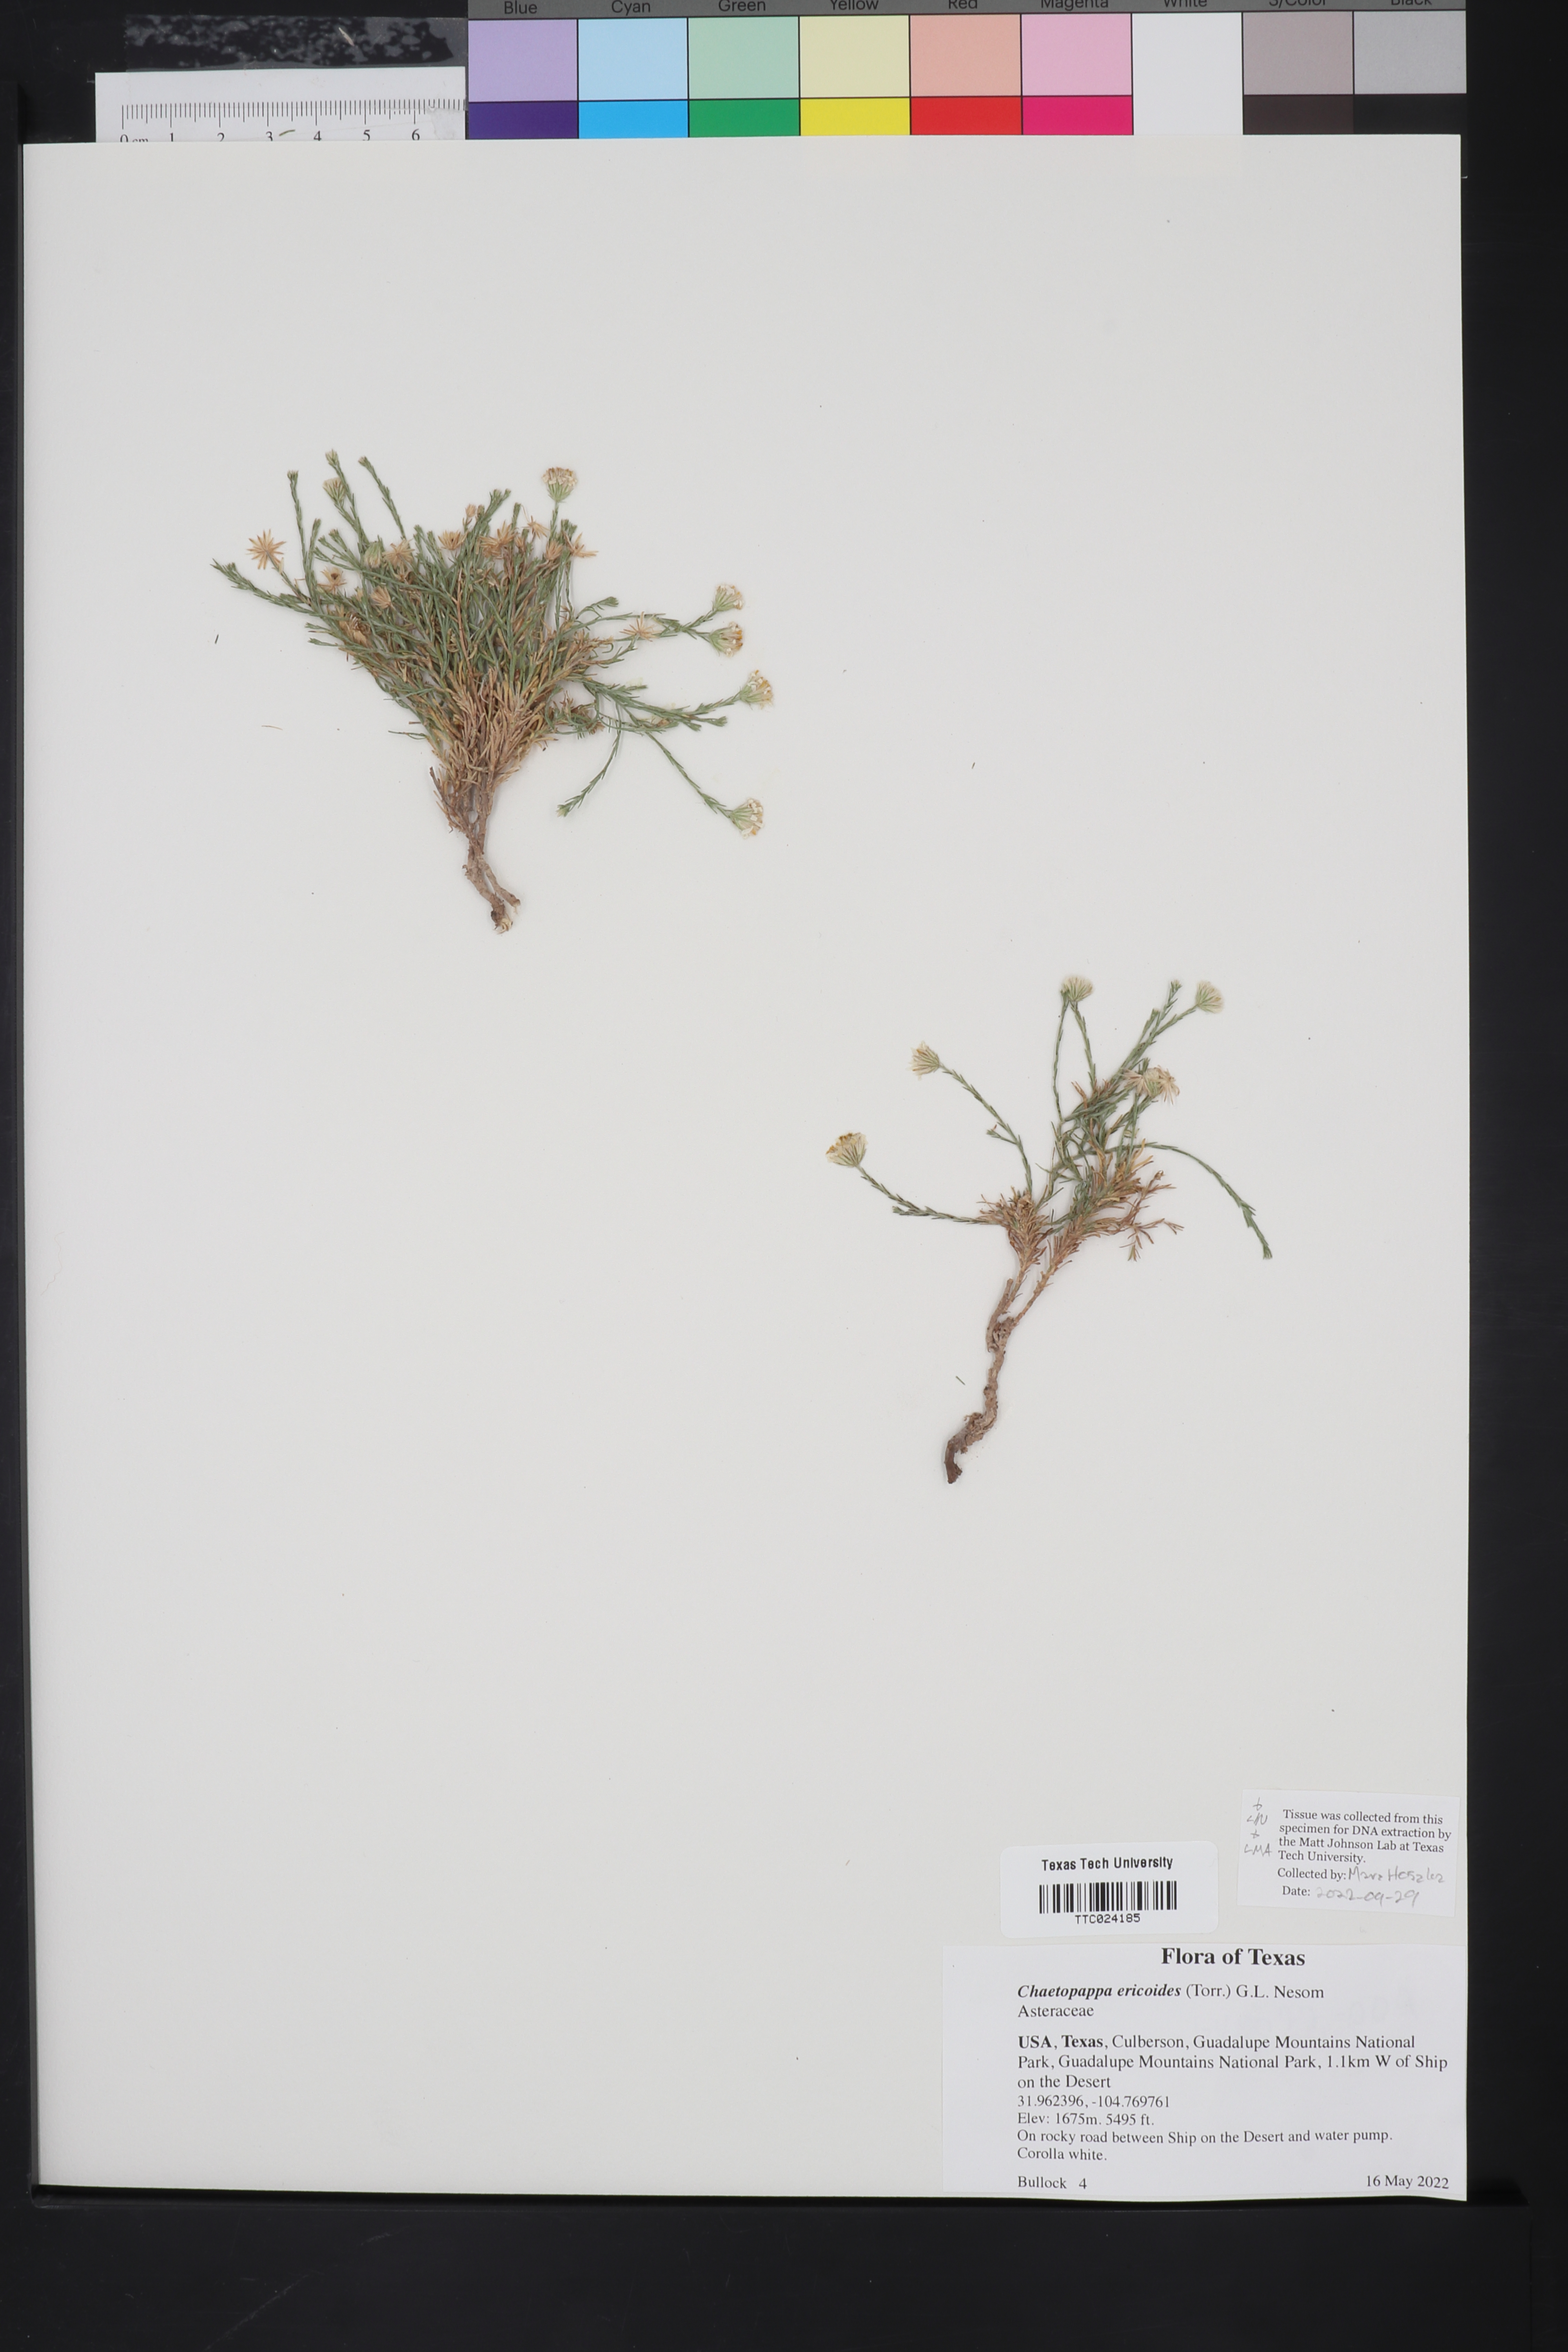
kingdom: Plantae
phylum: Tracheophyta
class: Magnoliopsida
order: Asterales
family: Asteraceae
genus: Chaetopappa
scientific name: Chaetopappa ericoides
